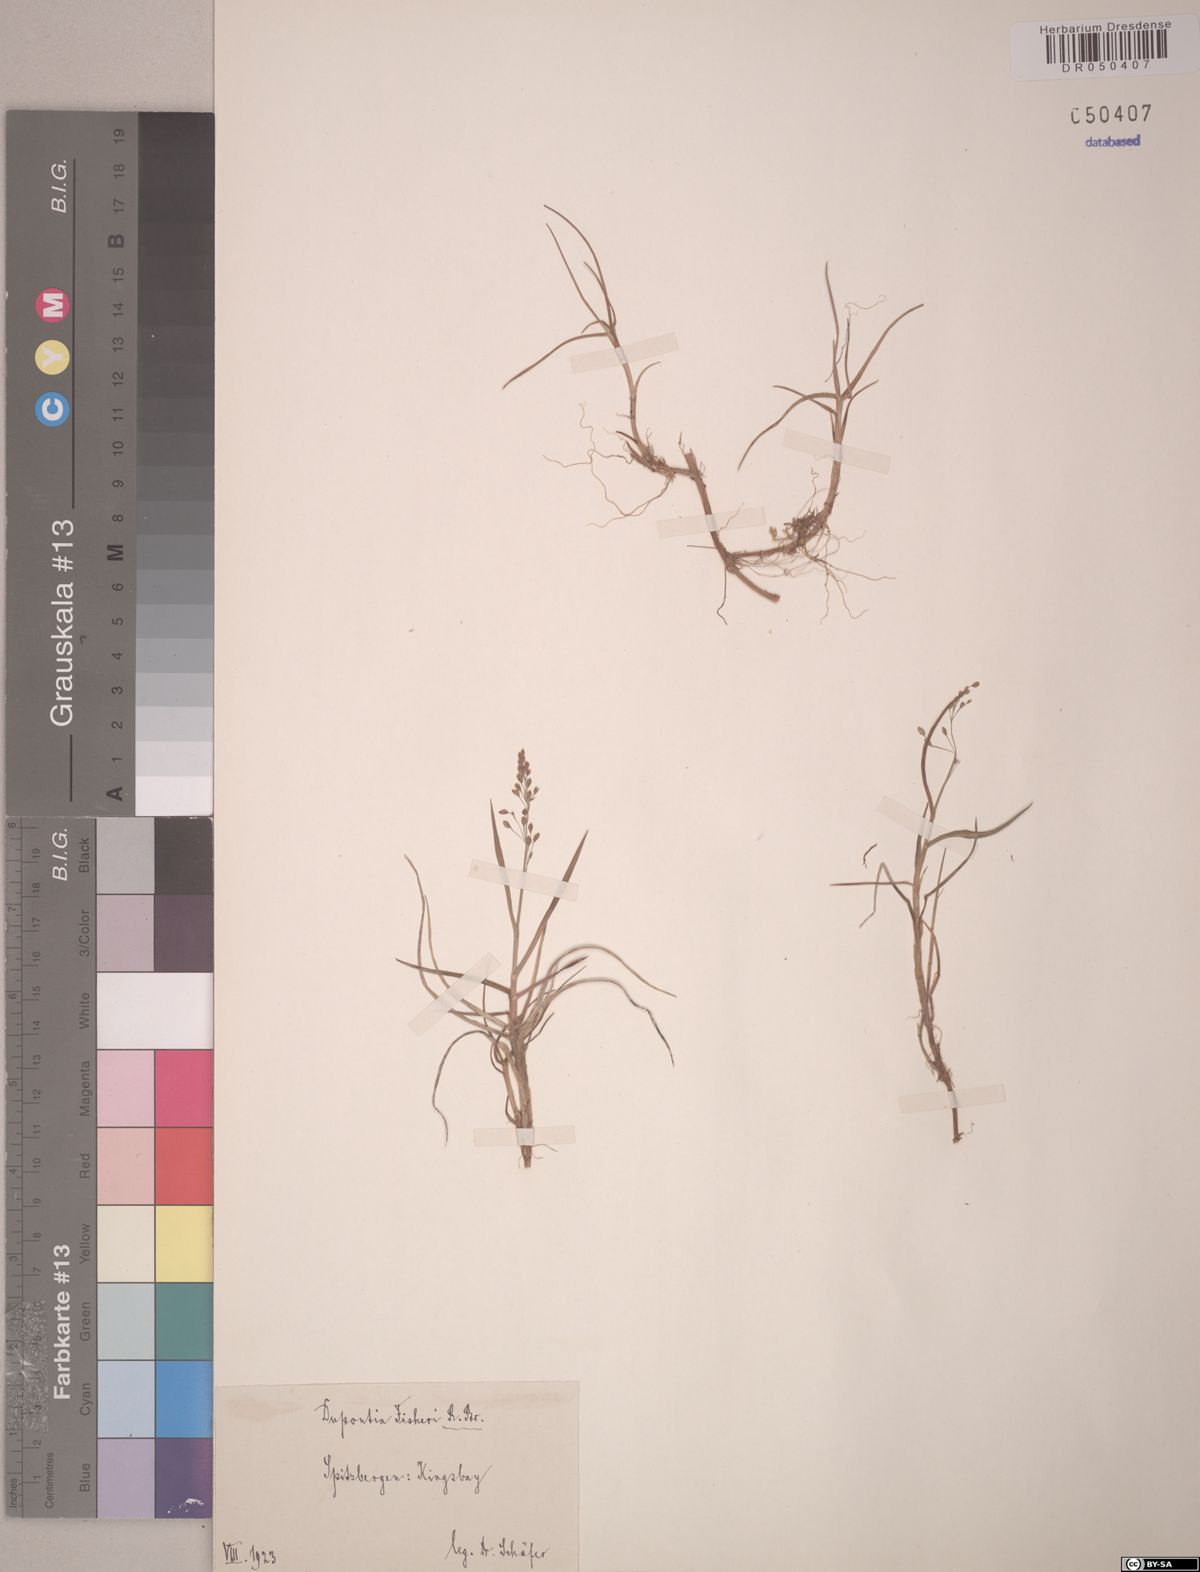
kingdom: Plantae
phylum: Tracheophyta
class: Liliopsida
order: Poales
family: Poaceae
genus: Dupontia
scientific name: Dupontia fisheri
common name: Tundra grass
